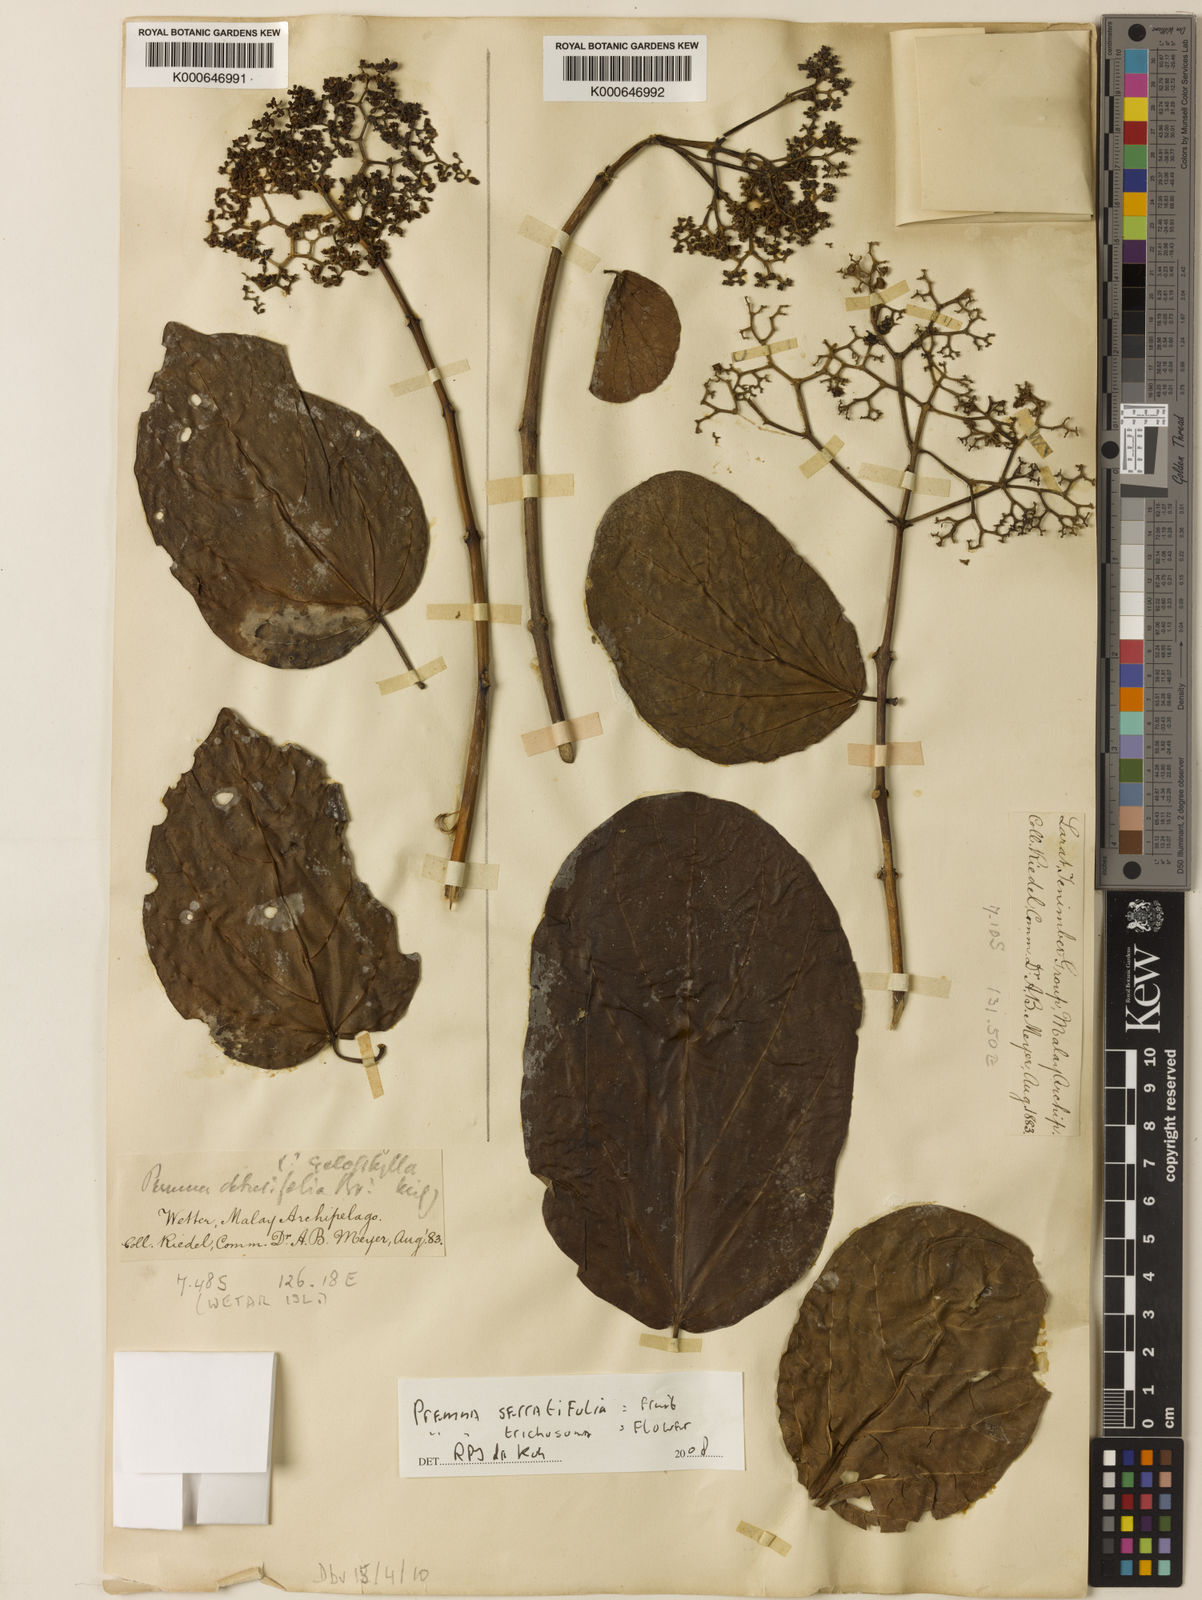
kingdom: Plantae
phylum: Tracheophyta
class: Magnoliopsida
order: Lamiales
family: Lamiaceae
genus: Premna
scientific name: Premna trichostoma
